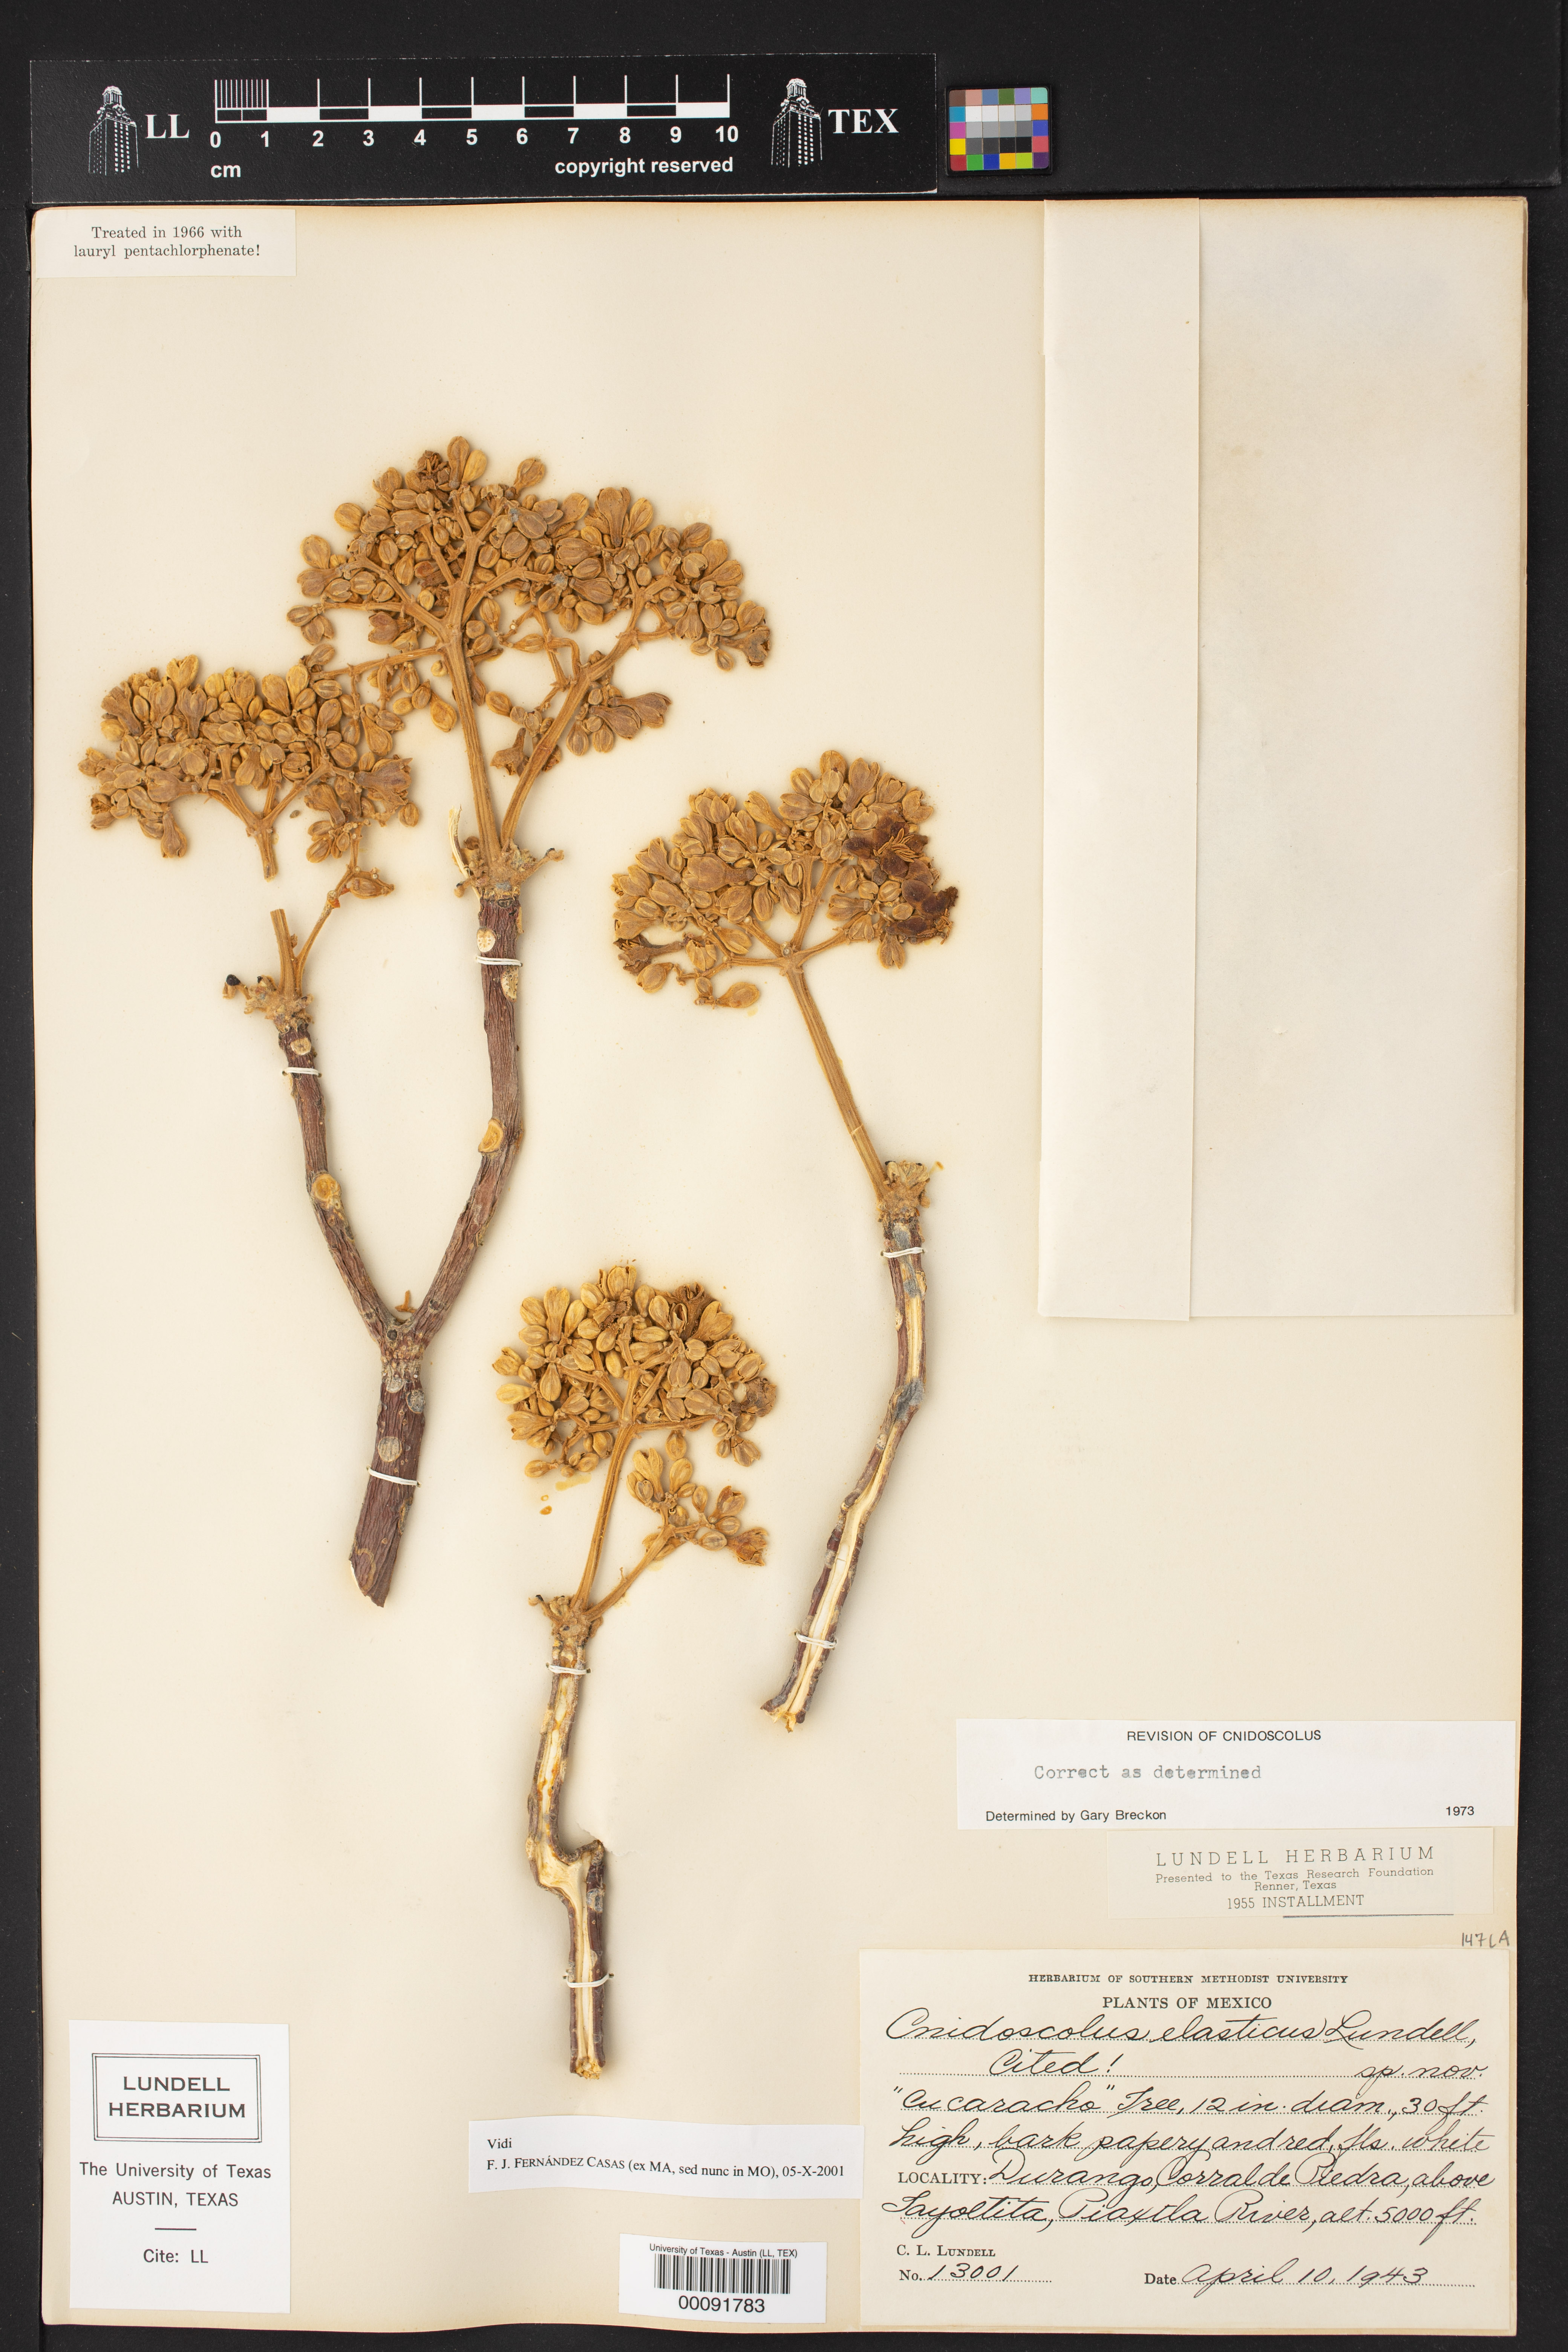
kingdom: Plantae
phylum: Tracheophyta
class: Magnoliopsida
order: Malpighiales
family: Euphorbiaceae
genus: Cnidoscolus
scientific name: Cnidoscolus elasticus
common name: Chilte
